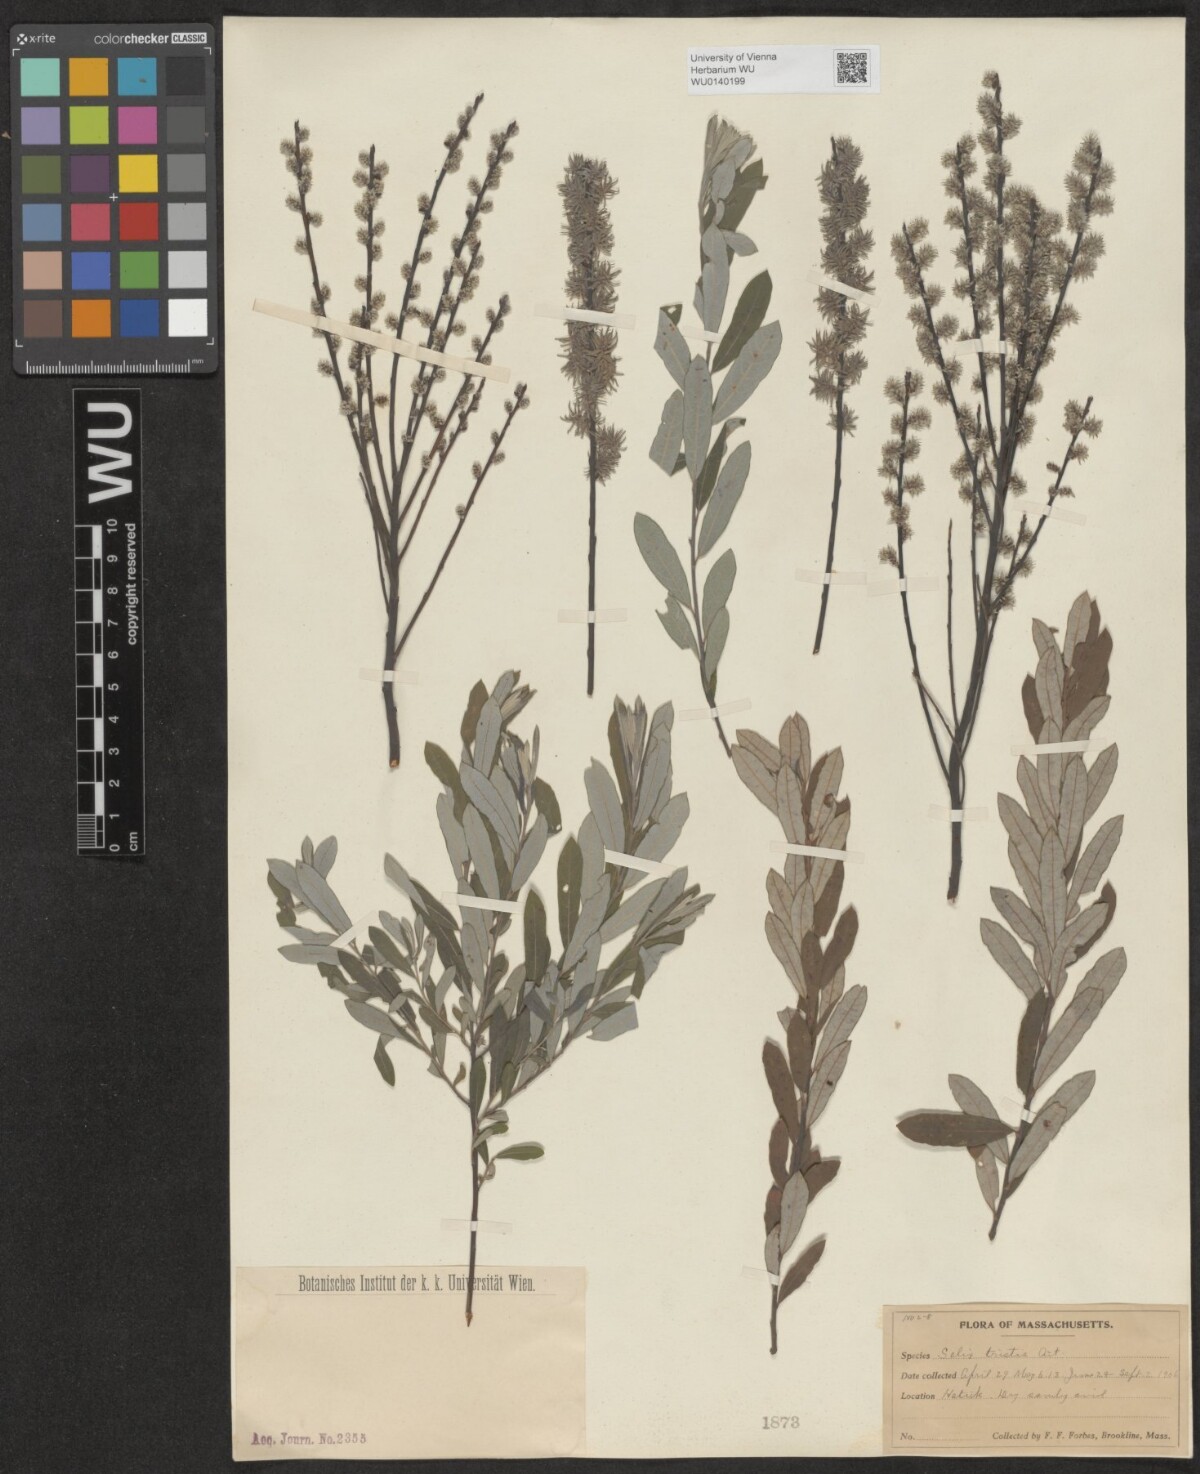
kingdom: Plantae
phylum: Tracheophyta
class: Magnoliopsida
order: Malpighiales
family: Salicaceae
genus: Salix
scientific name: Salix humilis
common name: Prairie willow
